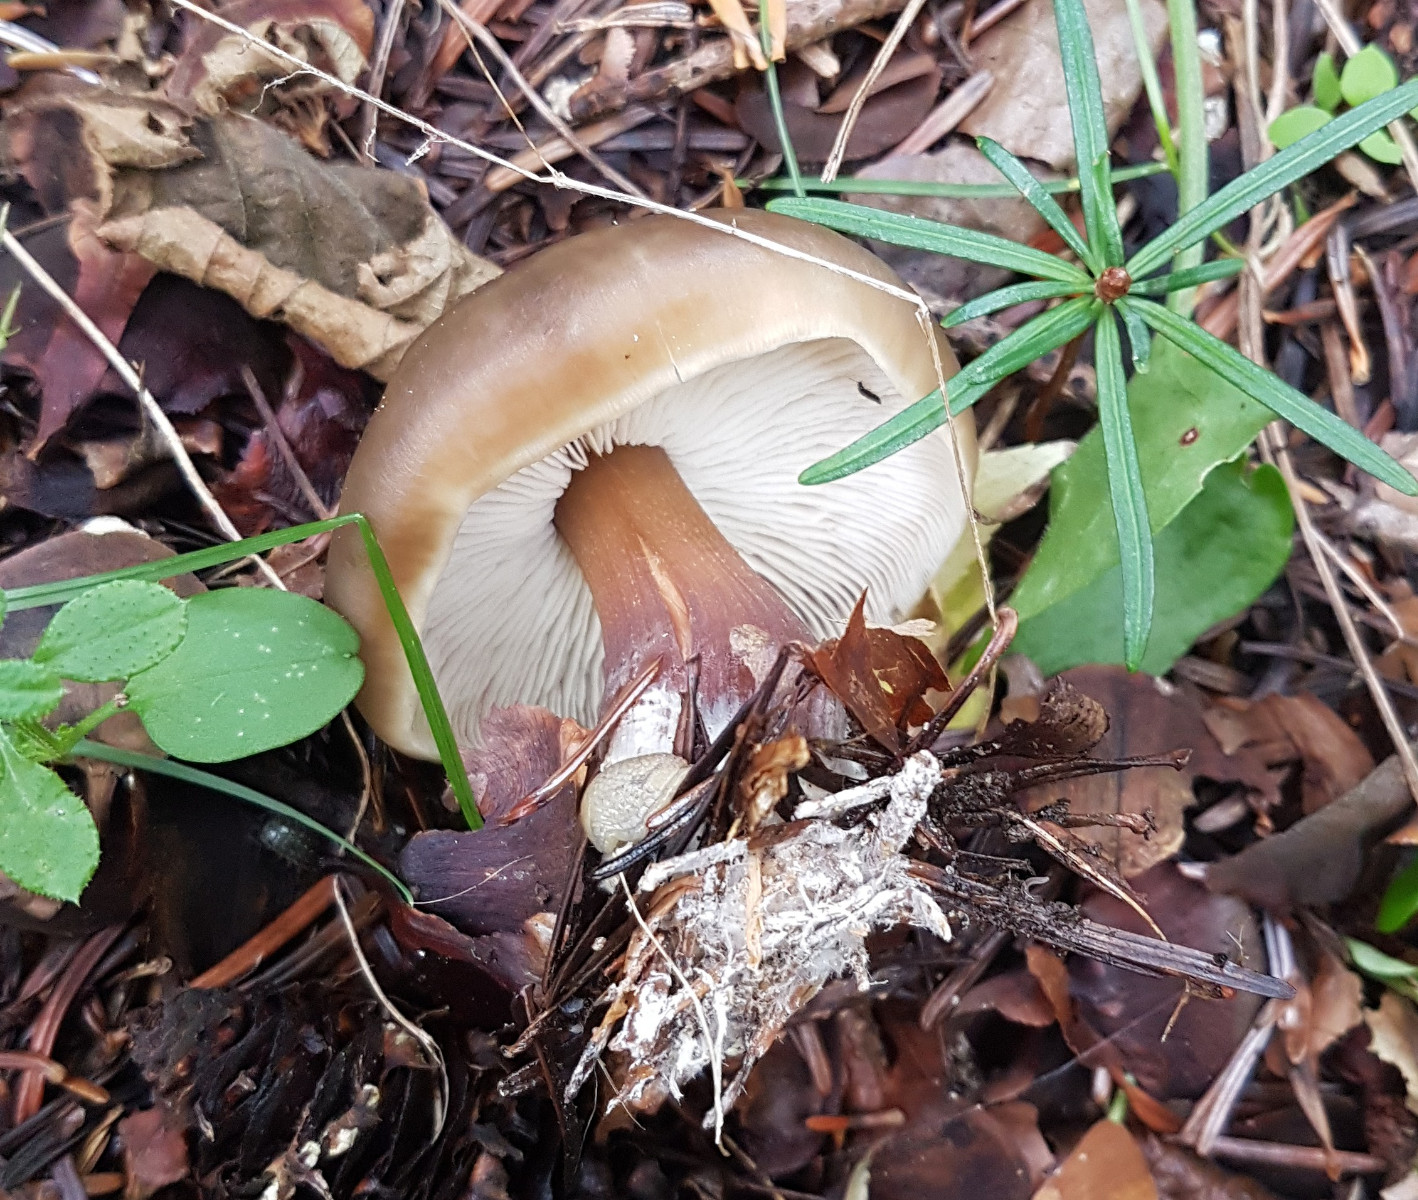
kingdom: Fungi
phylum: Basidiomycota
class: Agaricomycetes
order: Agaricales
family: Omphalotaceae
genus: Rhodocollybia
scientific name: Rhodocollybia butyracea
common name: keglestokket fladhat
